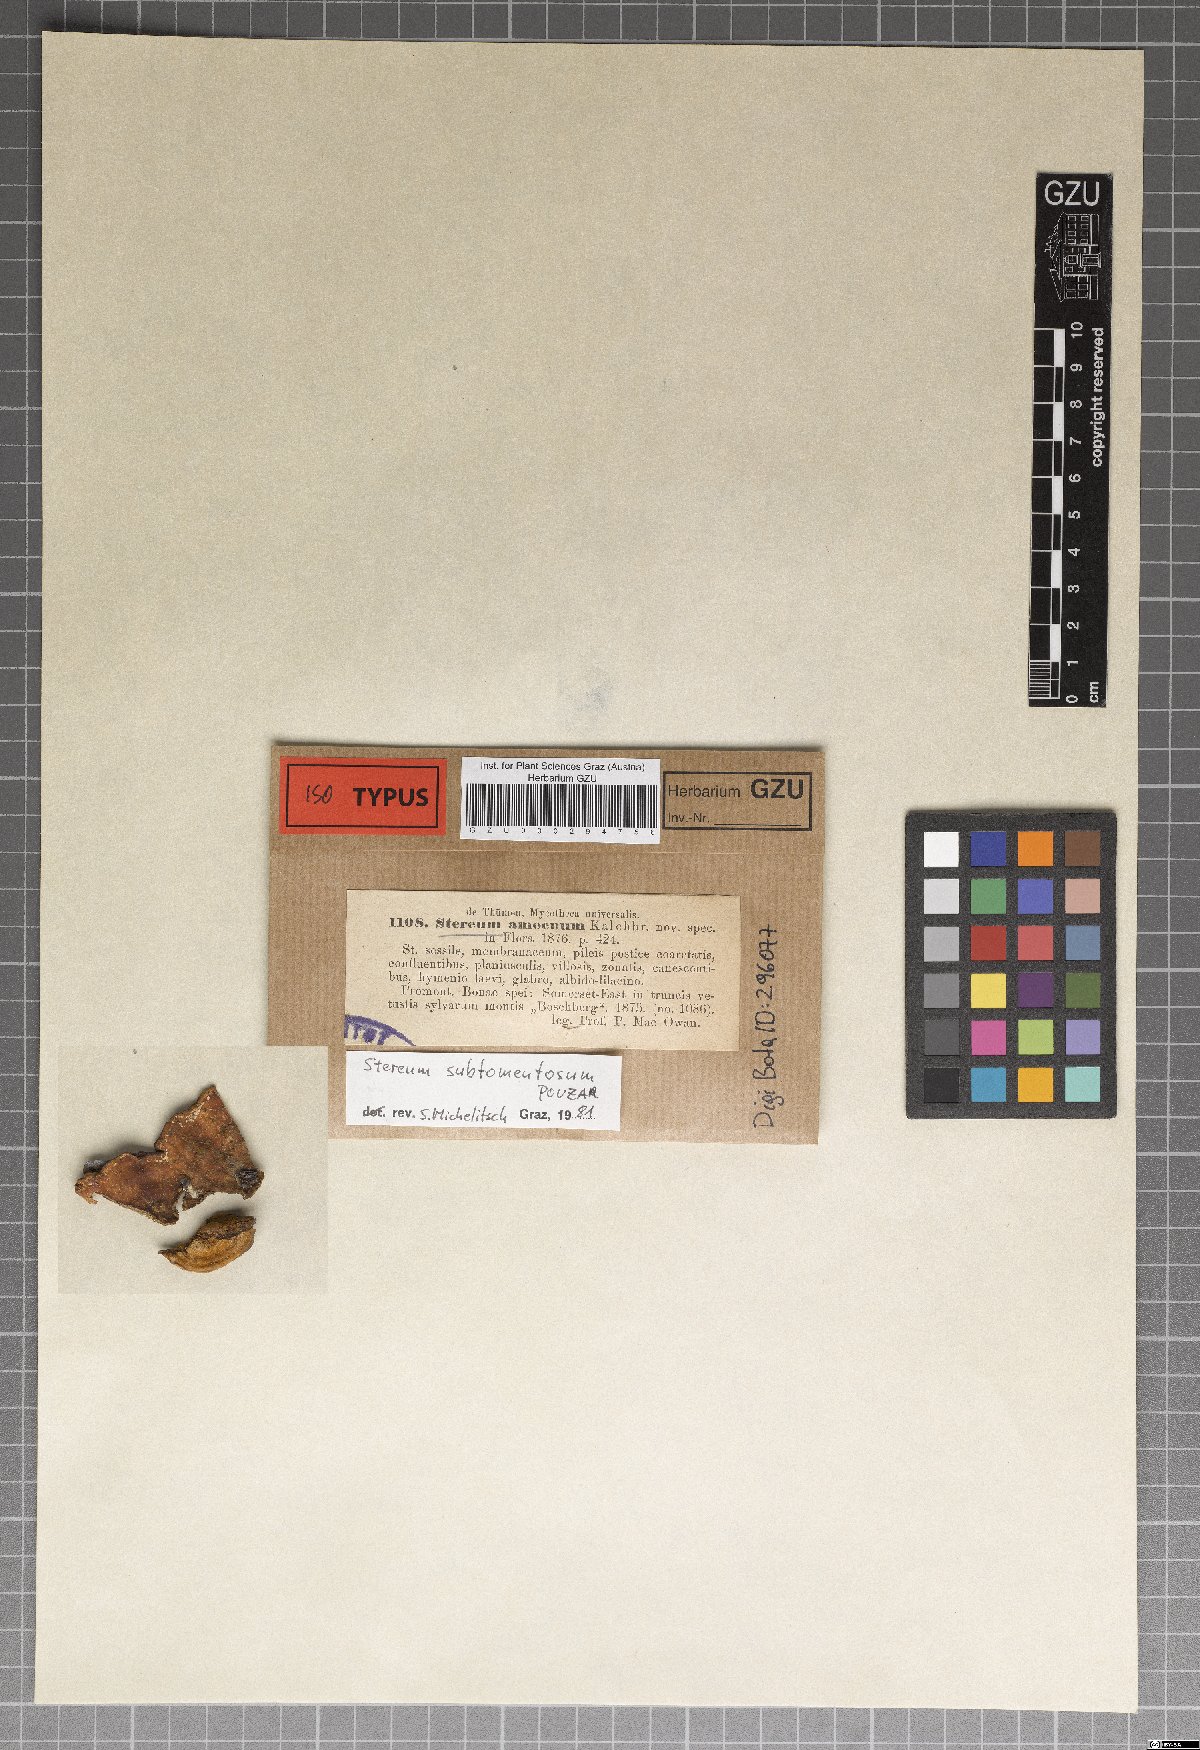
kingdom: Fungi
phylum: Basidiomycota
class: Agaricomycetes
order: Russulales
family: Stereaceae
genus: Stereum
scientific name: Stereum hirsutum
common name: Hairy curtain crust
